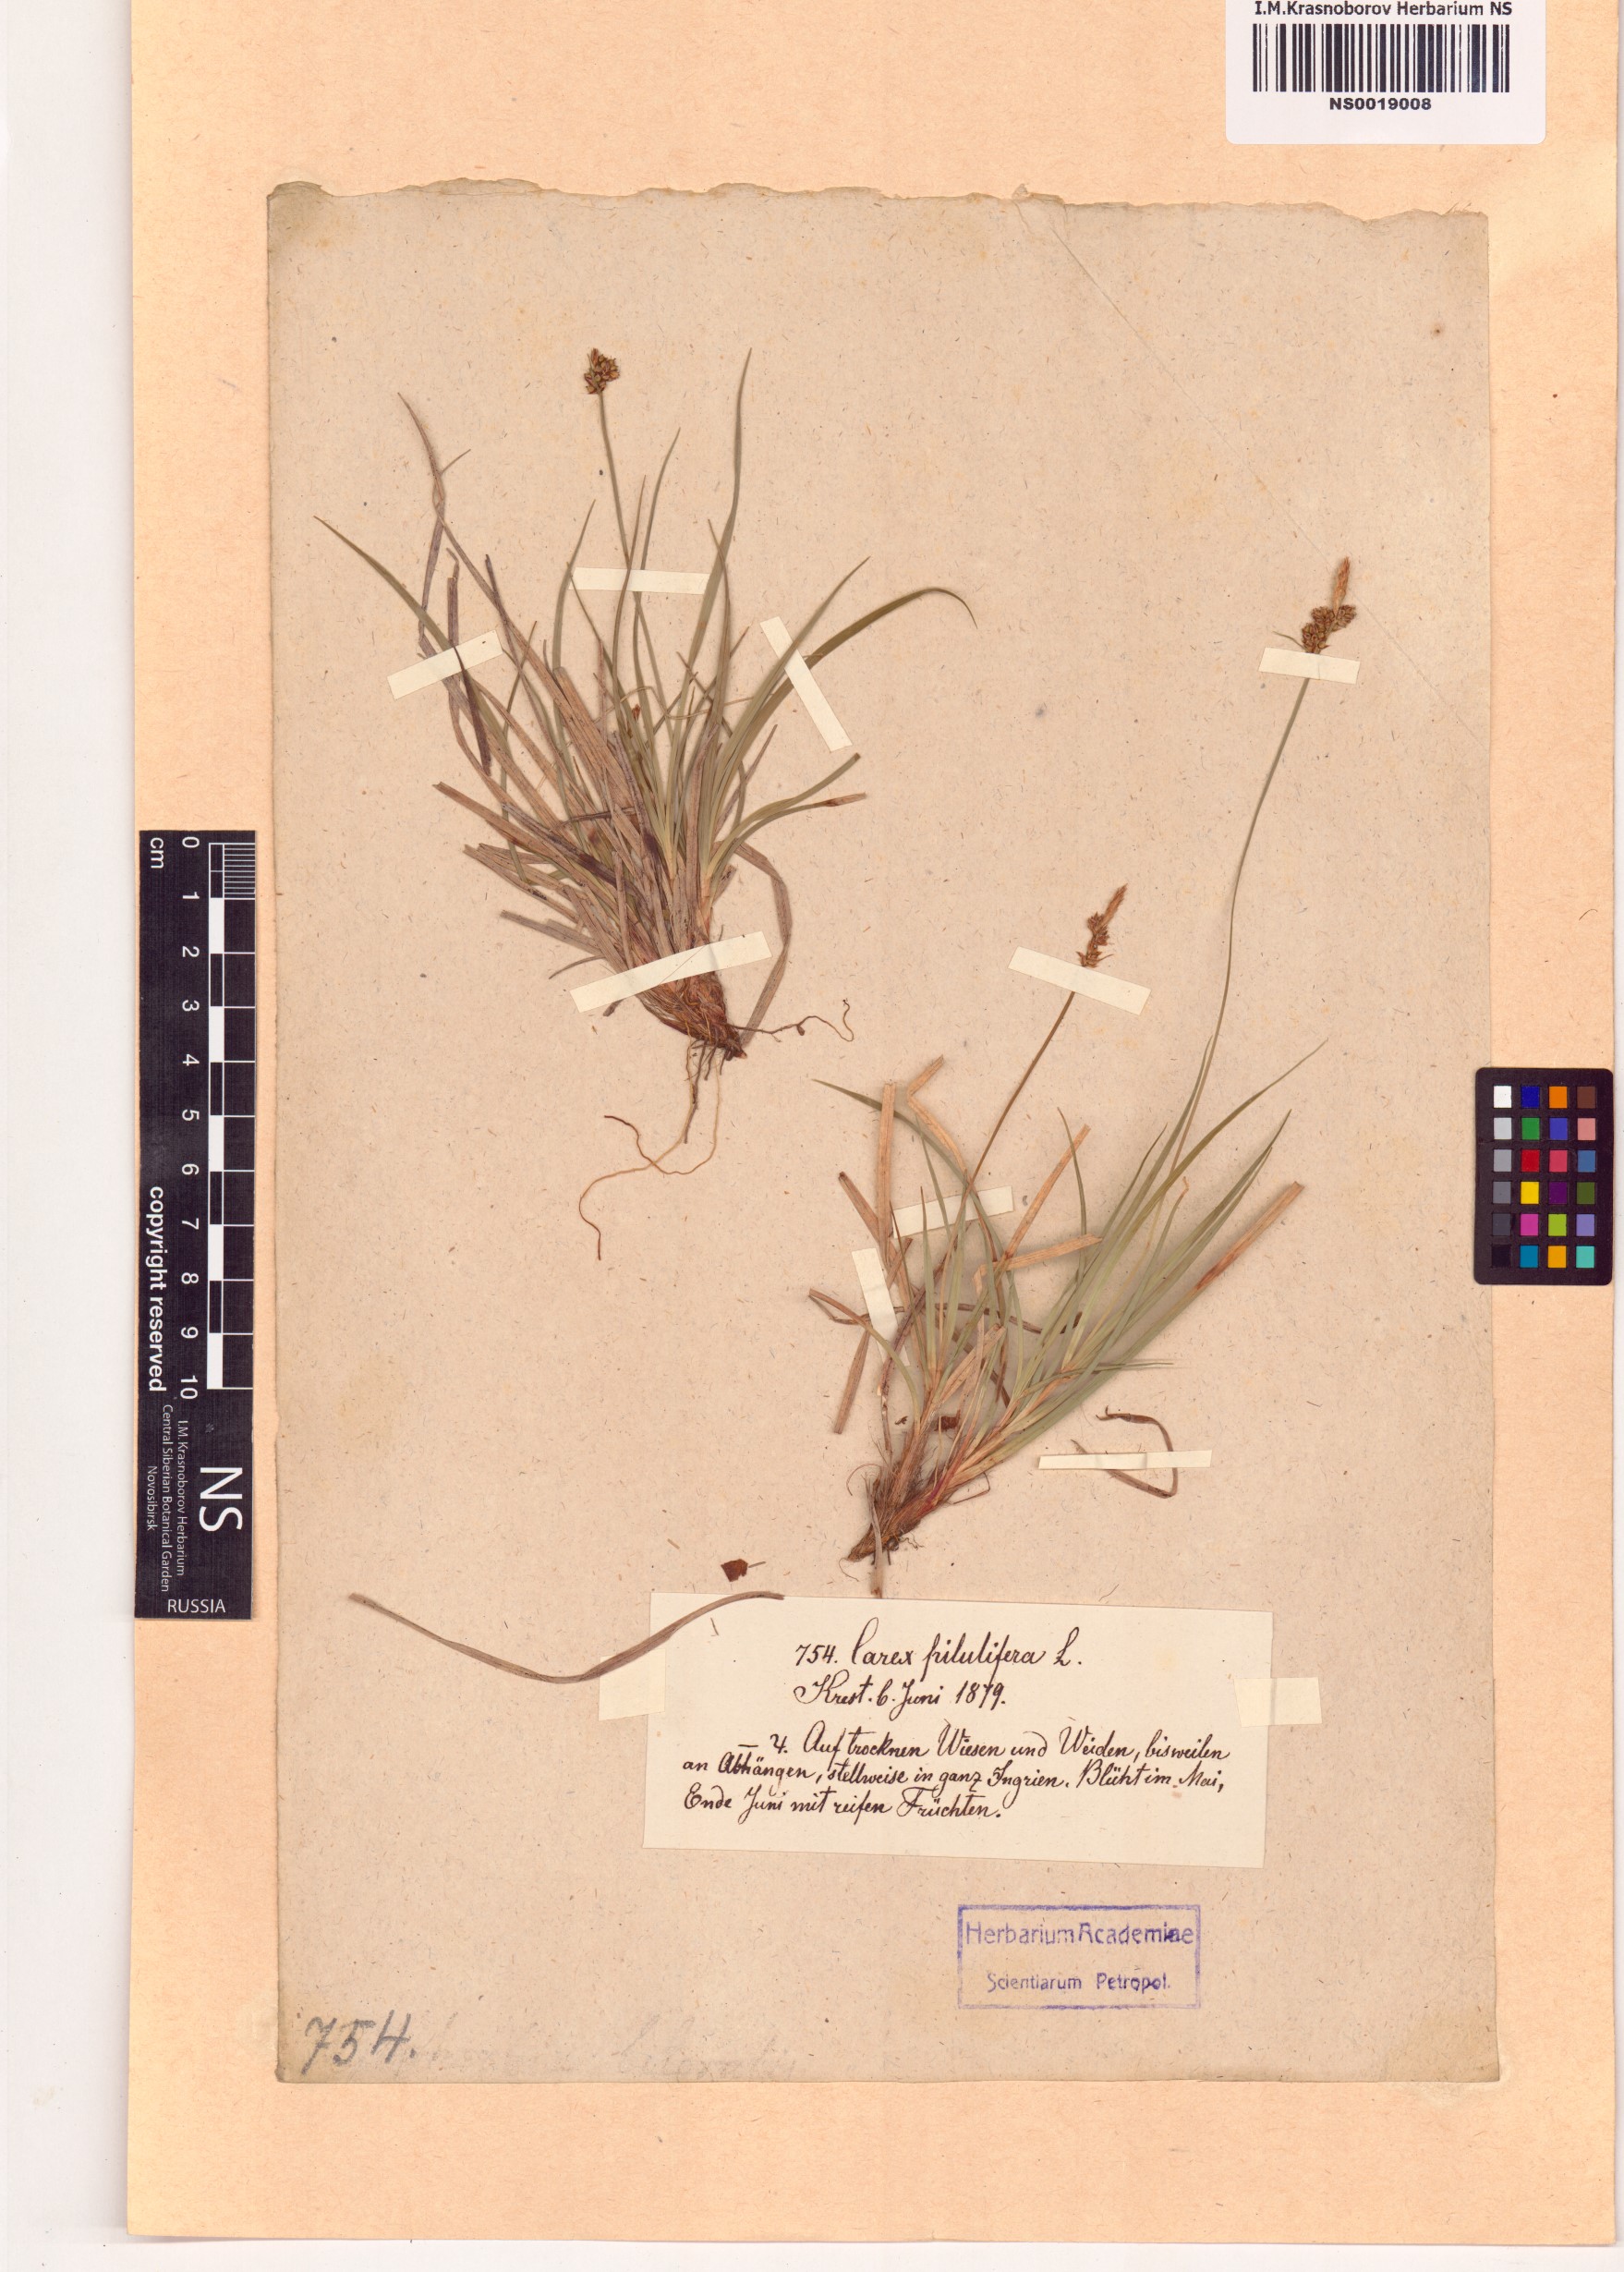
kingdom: Plantae
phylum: Tracheophyta
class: Liliopsida
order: Poales
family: Cyperaceae
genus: Carex
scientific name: Carex pilulifera
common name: Pill sedge
